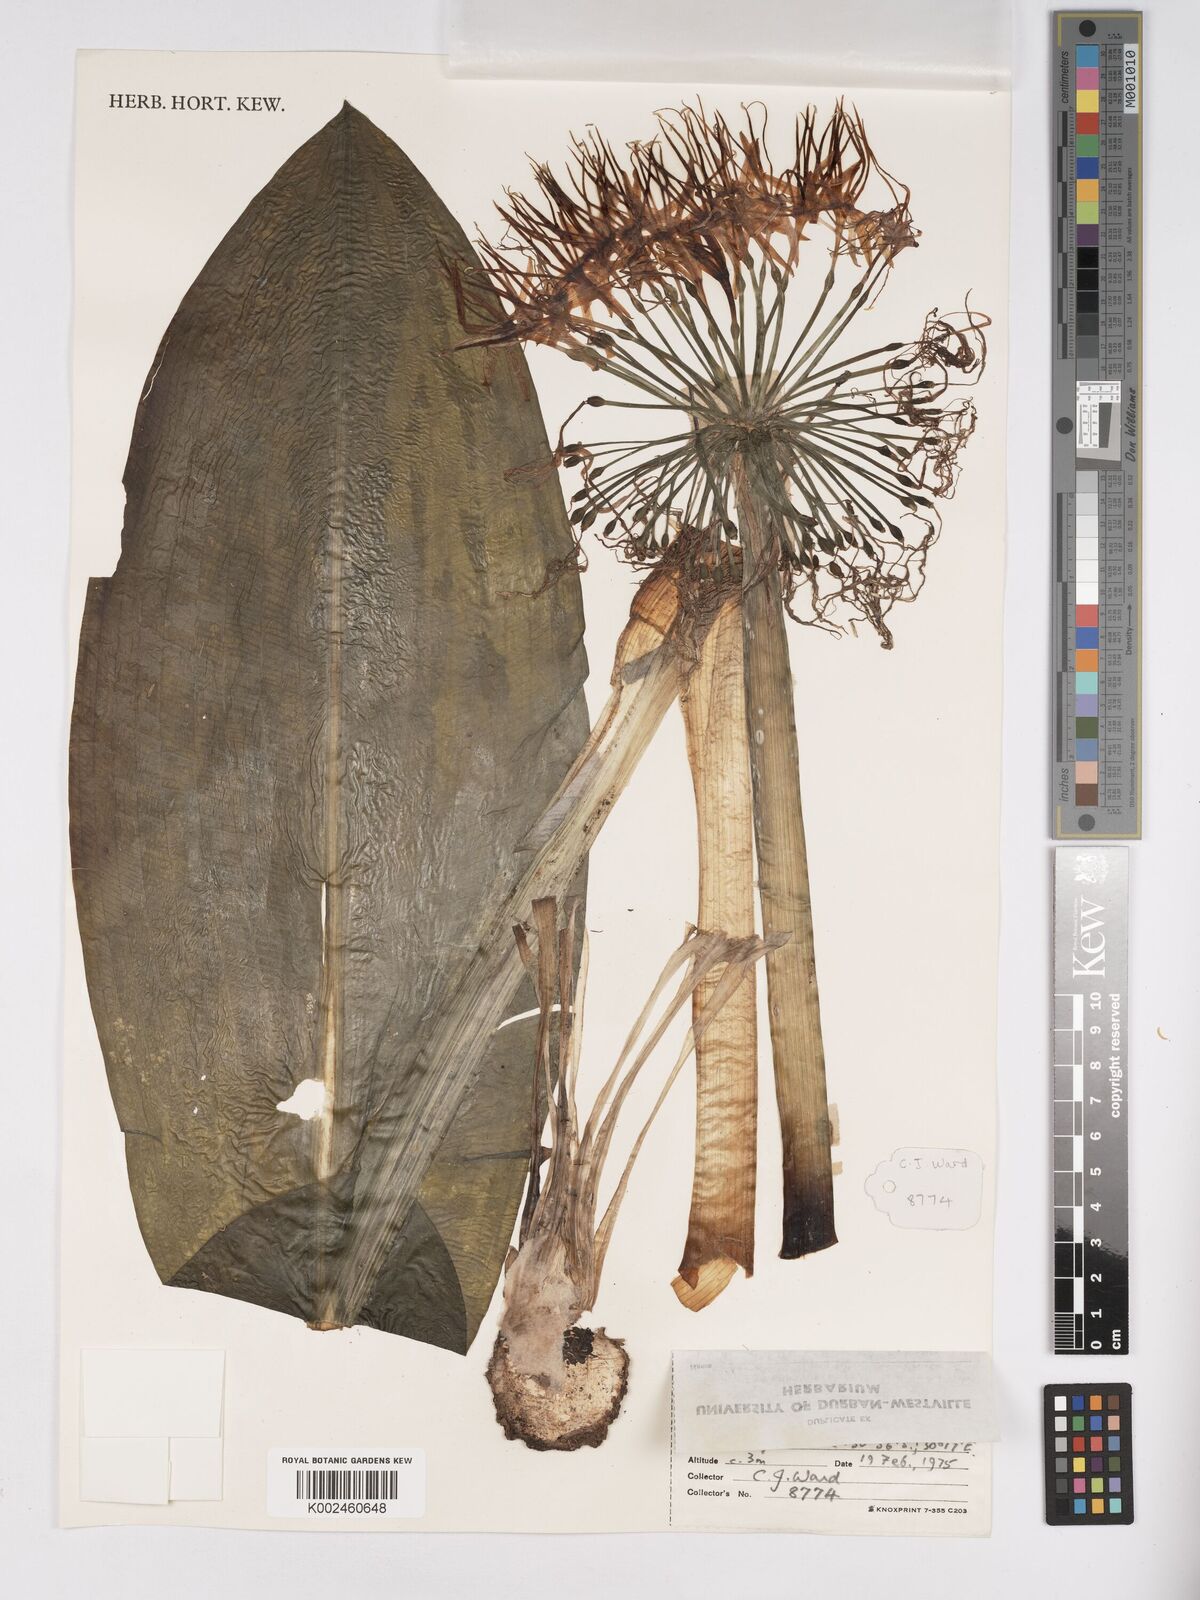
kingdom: Plantae
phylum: Tracheophyta
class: Liliopsida
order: Asparagales
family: Amaryllidaceae
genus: Scadoxus
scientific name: Scadoxus multiflorus
